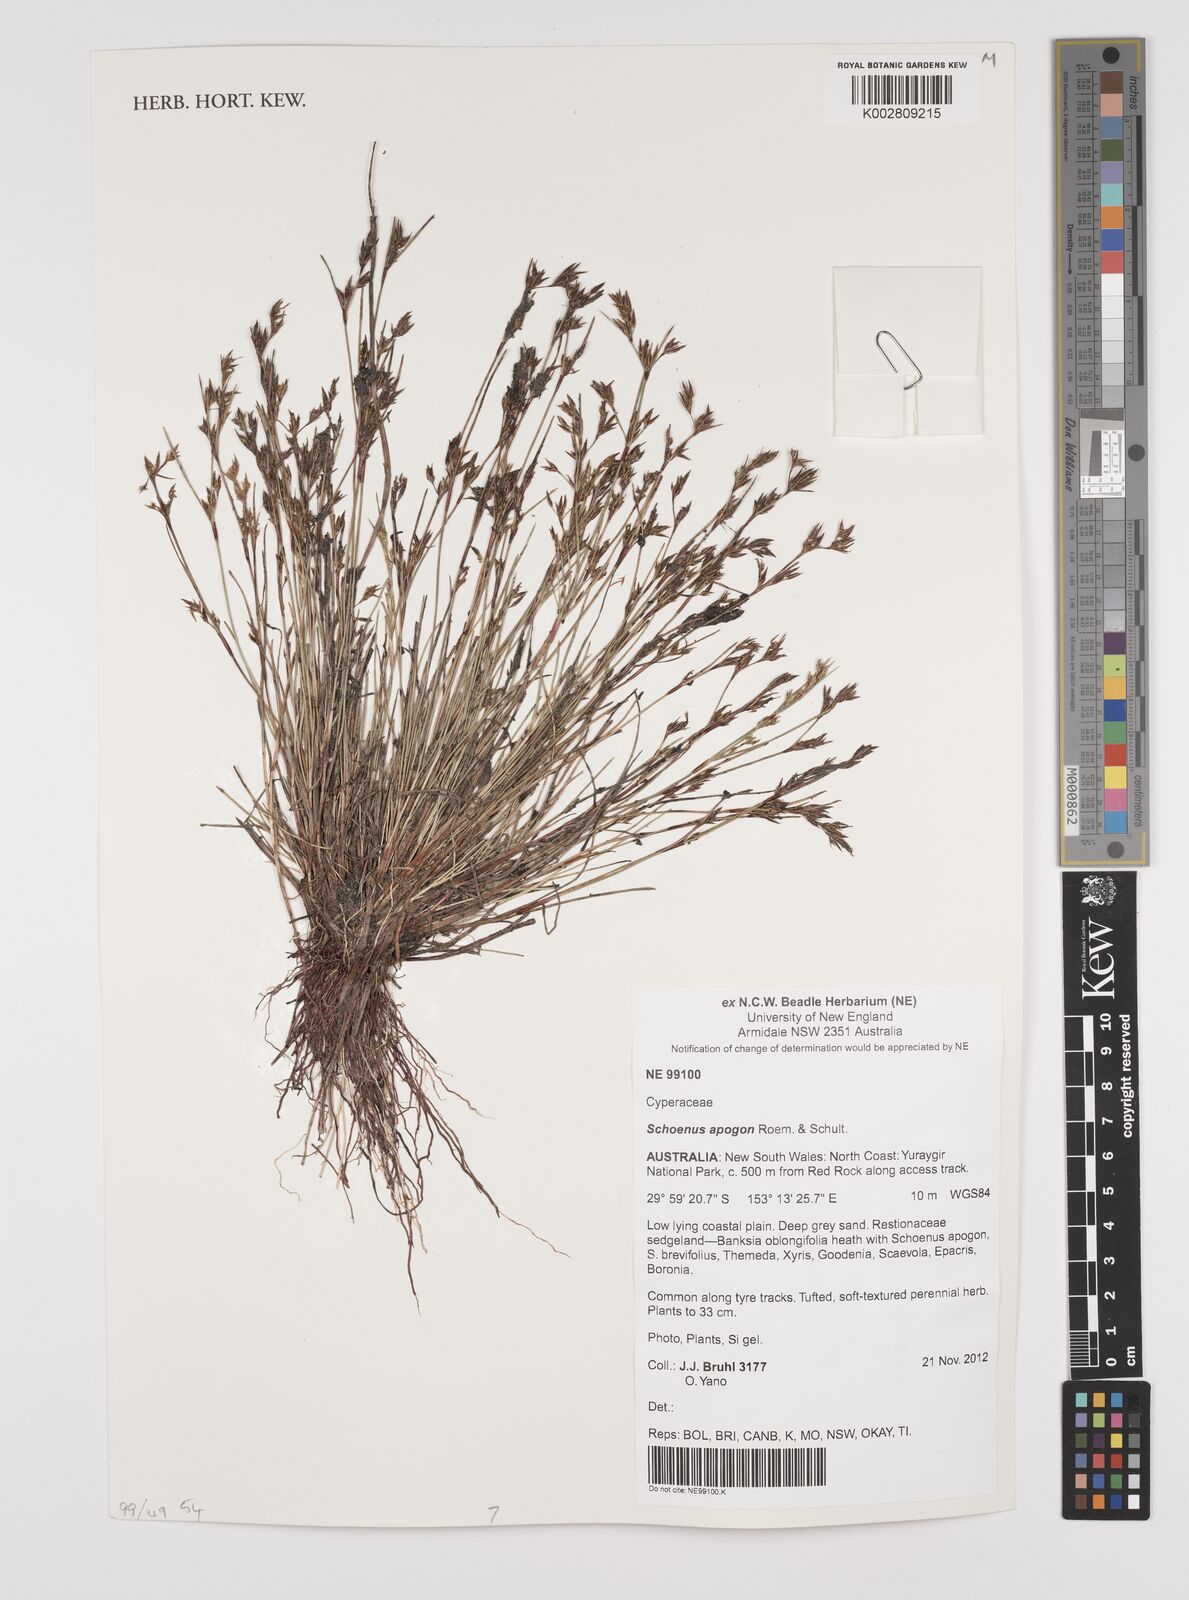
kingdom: Plantae
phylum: Tracheophyta
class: Liliopsida
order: Poales
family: Cyperaceae
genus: Schoenus
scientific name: Schoenus apogon
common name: Smooth bogrush
